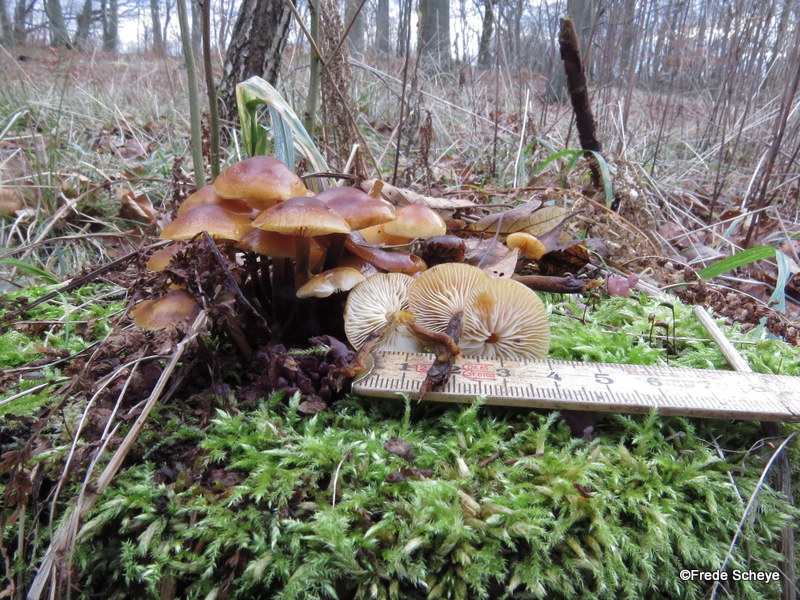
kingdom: Fungi
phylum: Basidiomycota
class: Agaricomycetes
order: Agaricales
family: Physalacriaceae
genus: Flammulina
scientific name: Flammulina velutipes
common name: gul fløjlsfod
